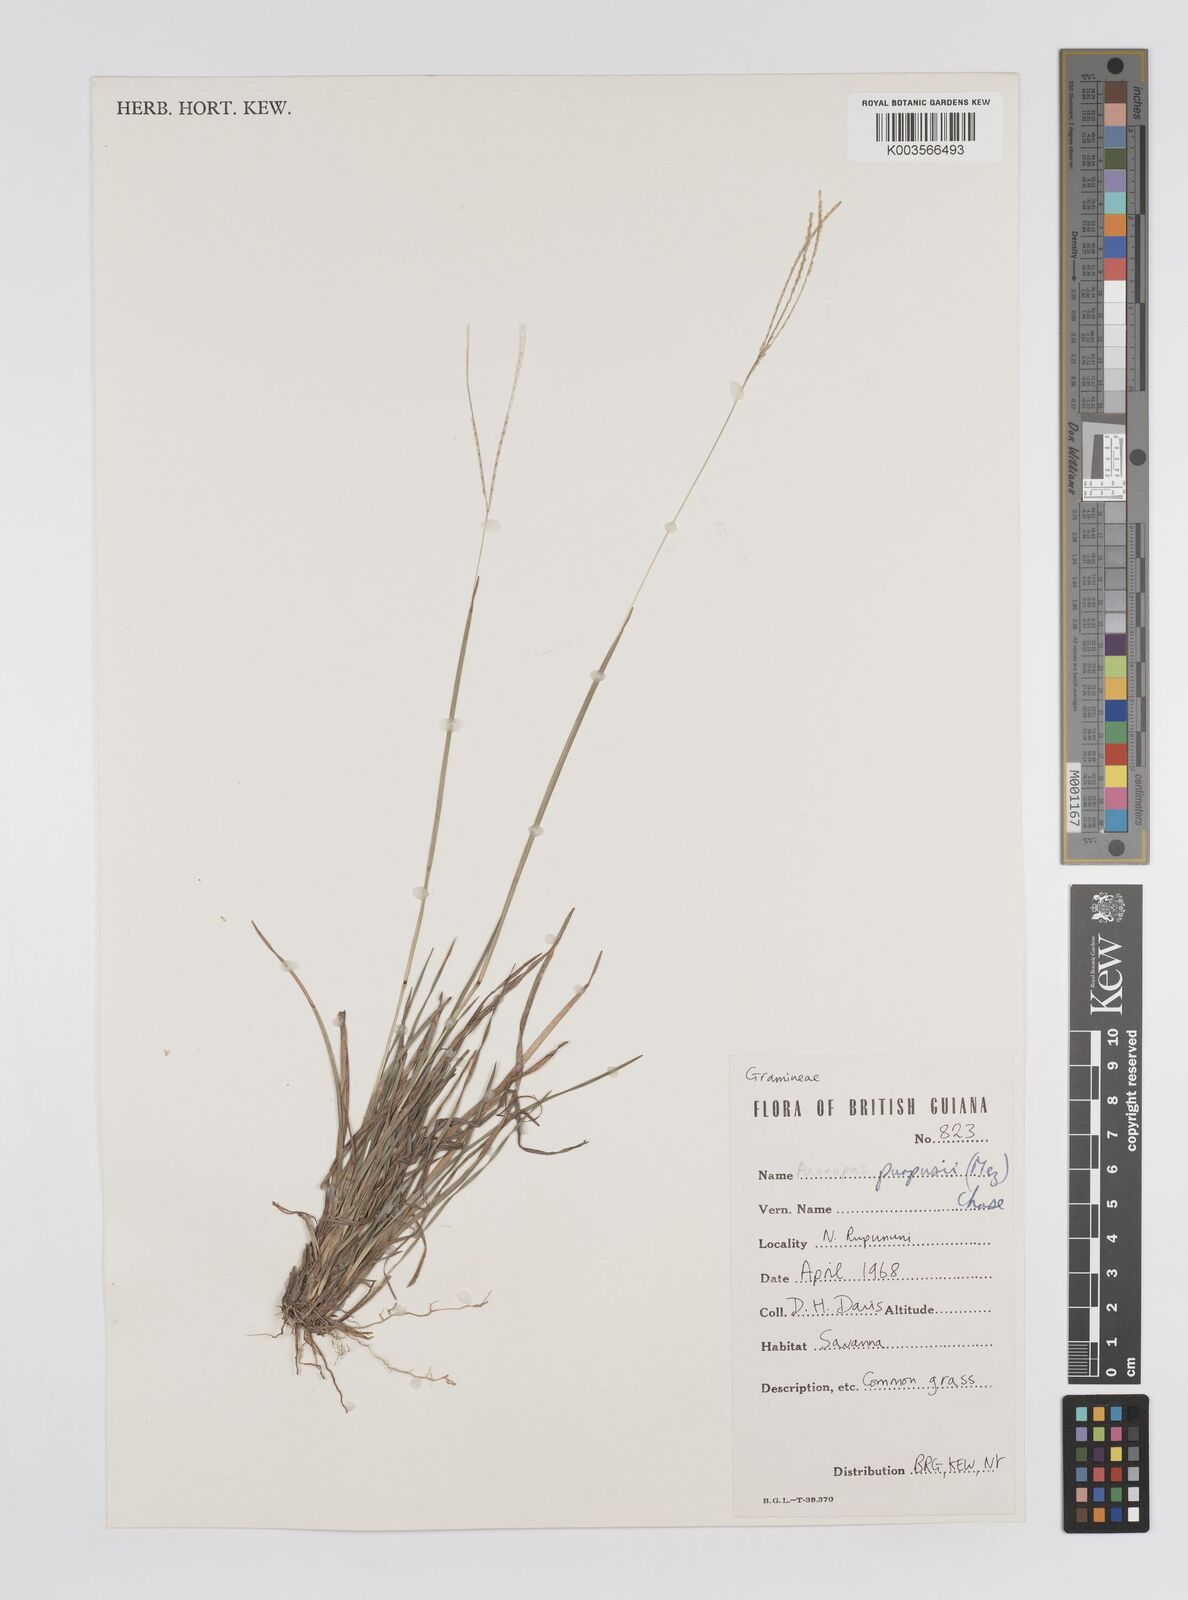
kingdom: Plantae
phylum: Tracheophyta
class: Liliopsida
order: Poales
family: Poaceae
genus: Axonopus
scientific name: Axonopus purpusii
